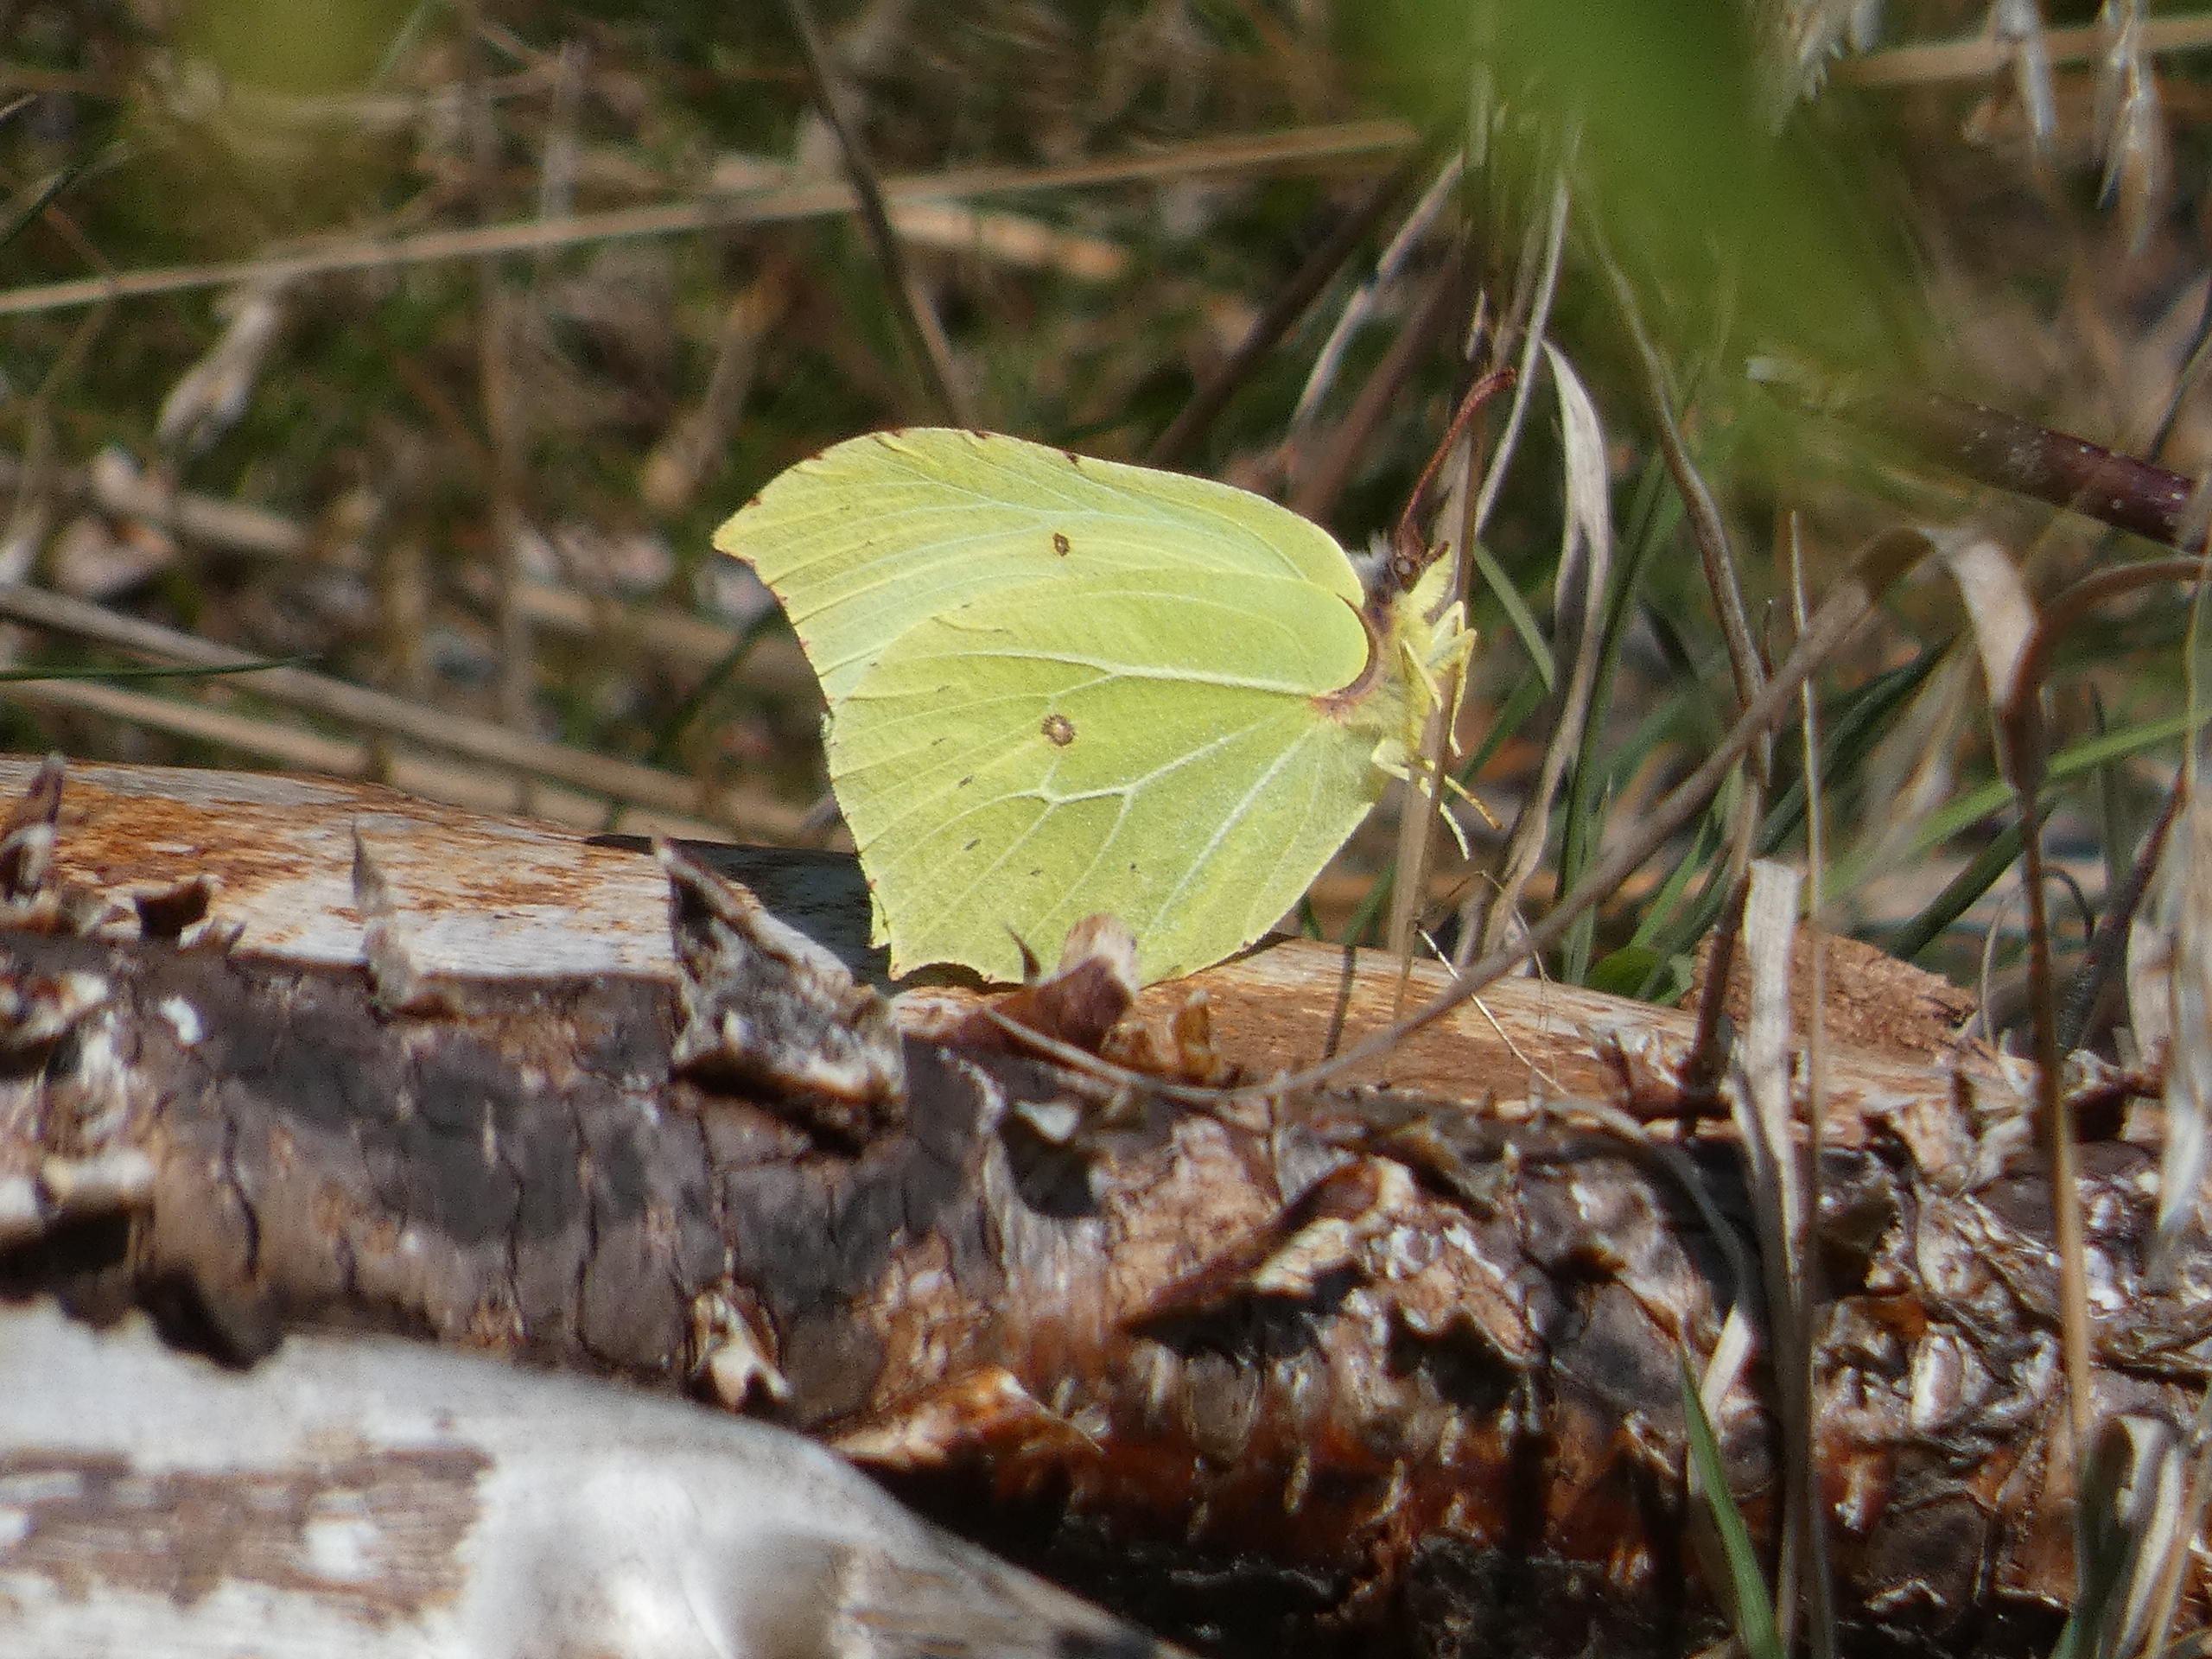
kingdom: Animalia
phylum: Arthropoda
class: Insecta
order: Lepidoptera
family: Pieridae
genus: Gonepteryx
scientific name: Gonepteryx rhamni
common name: Citronsommerfugl
